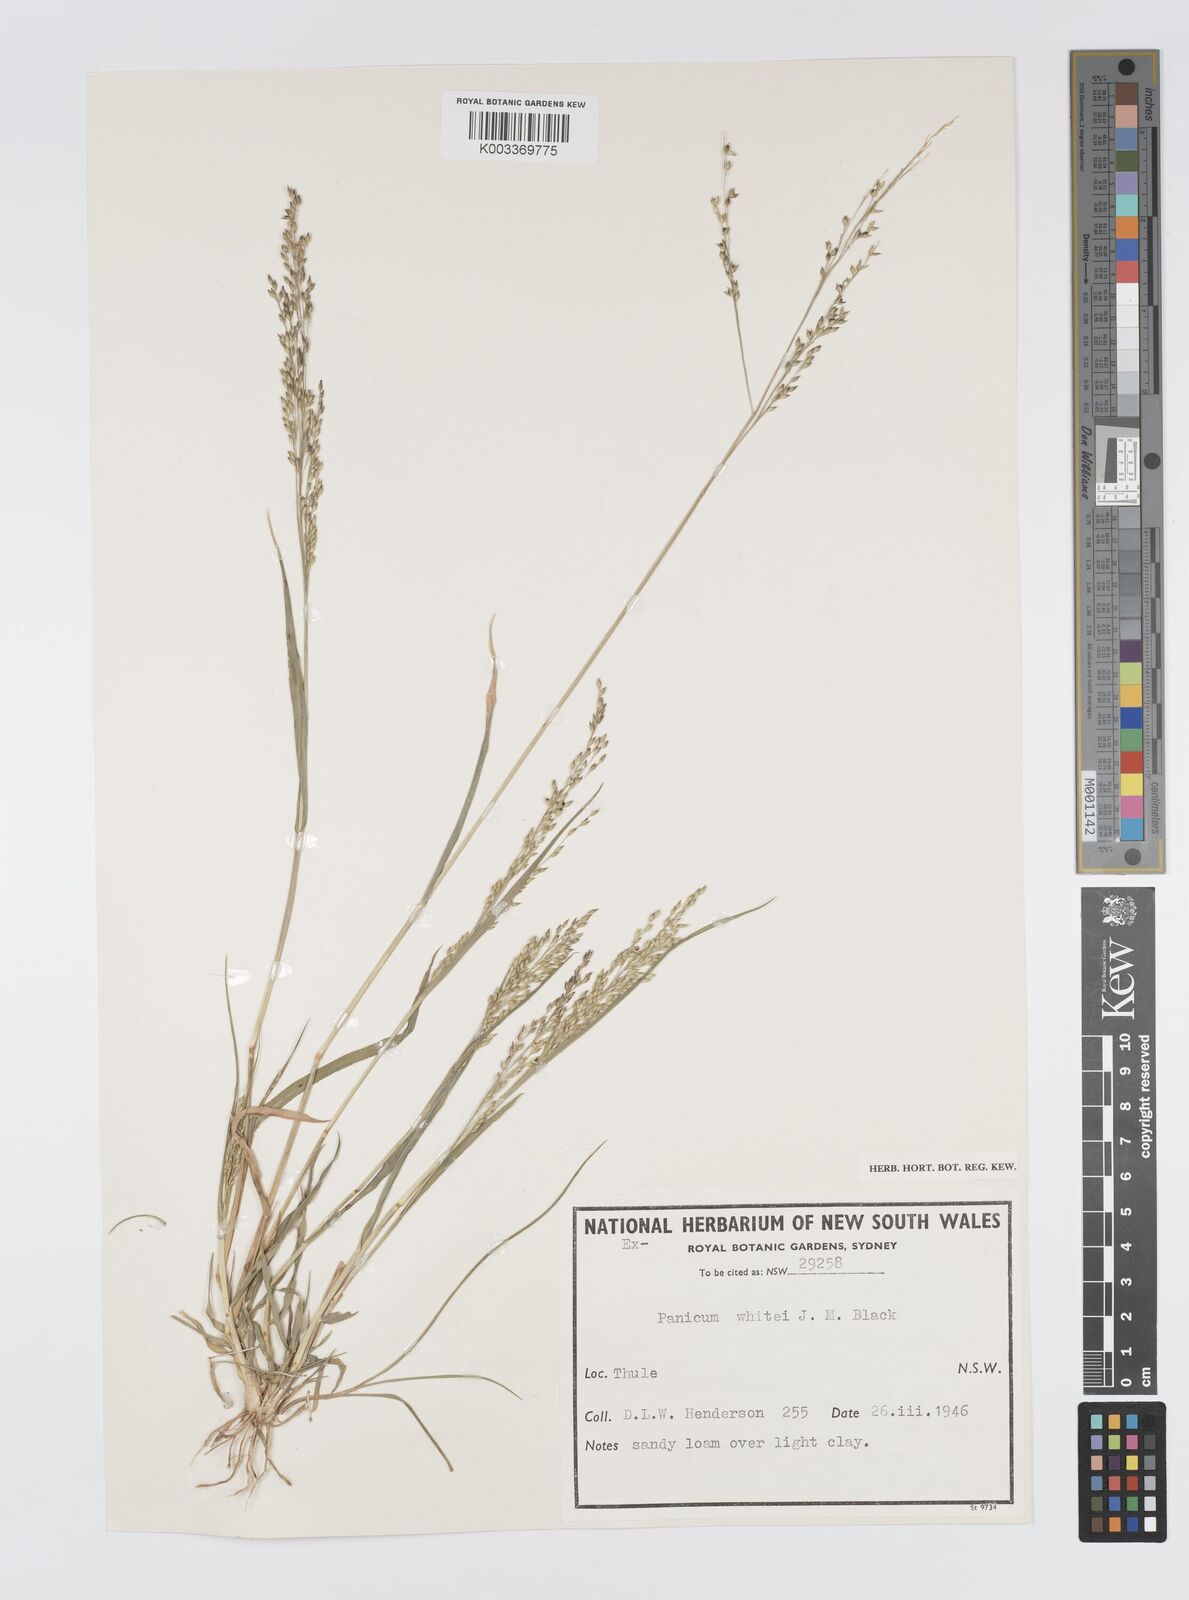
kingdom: Plantae
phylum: Tracheophyta
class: Liliopsida
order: Poales
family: Poaceae
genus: Panicum
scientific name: Panicum laevinode
